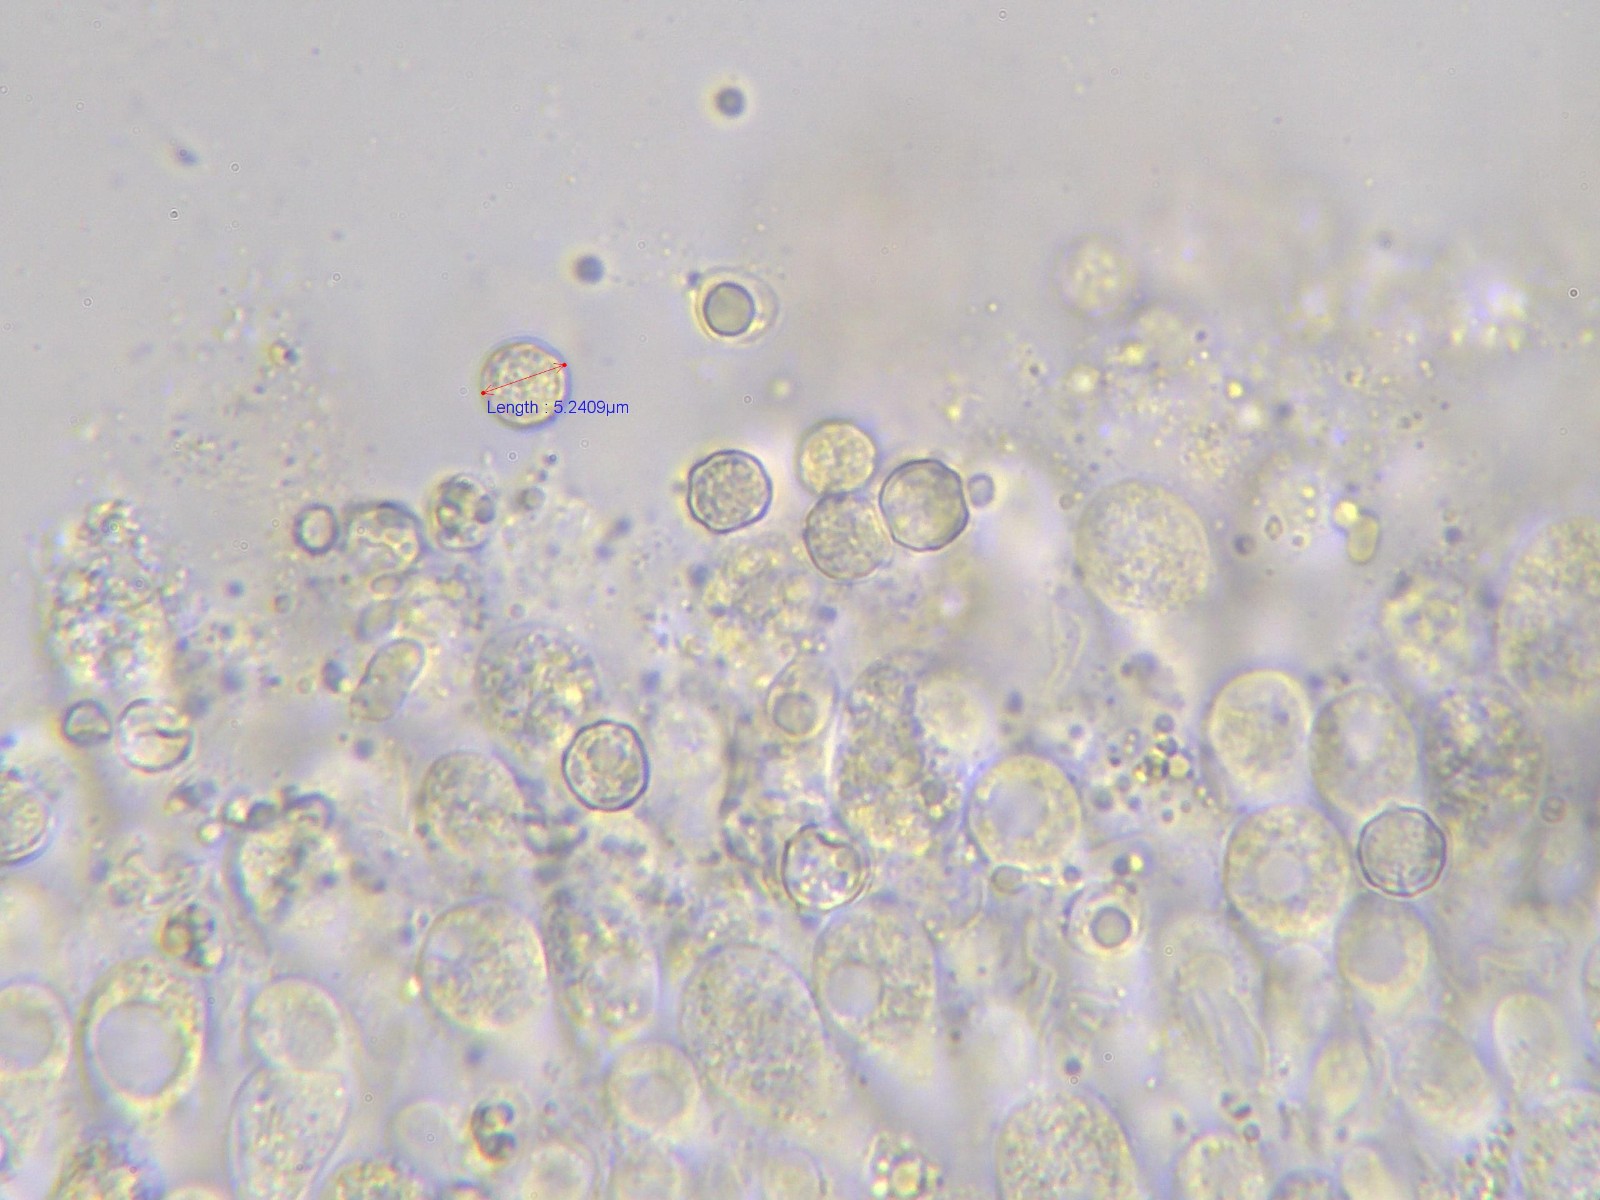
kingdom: Fungi
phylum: Basidiomycota
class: Agaricomycetes
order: Agaricales
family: Lyophyllaceae
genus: Tephrocybe
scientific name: Tephrocybe ambusta
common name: kul-gråblad
